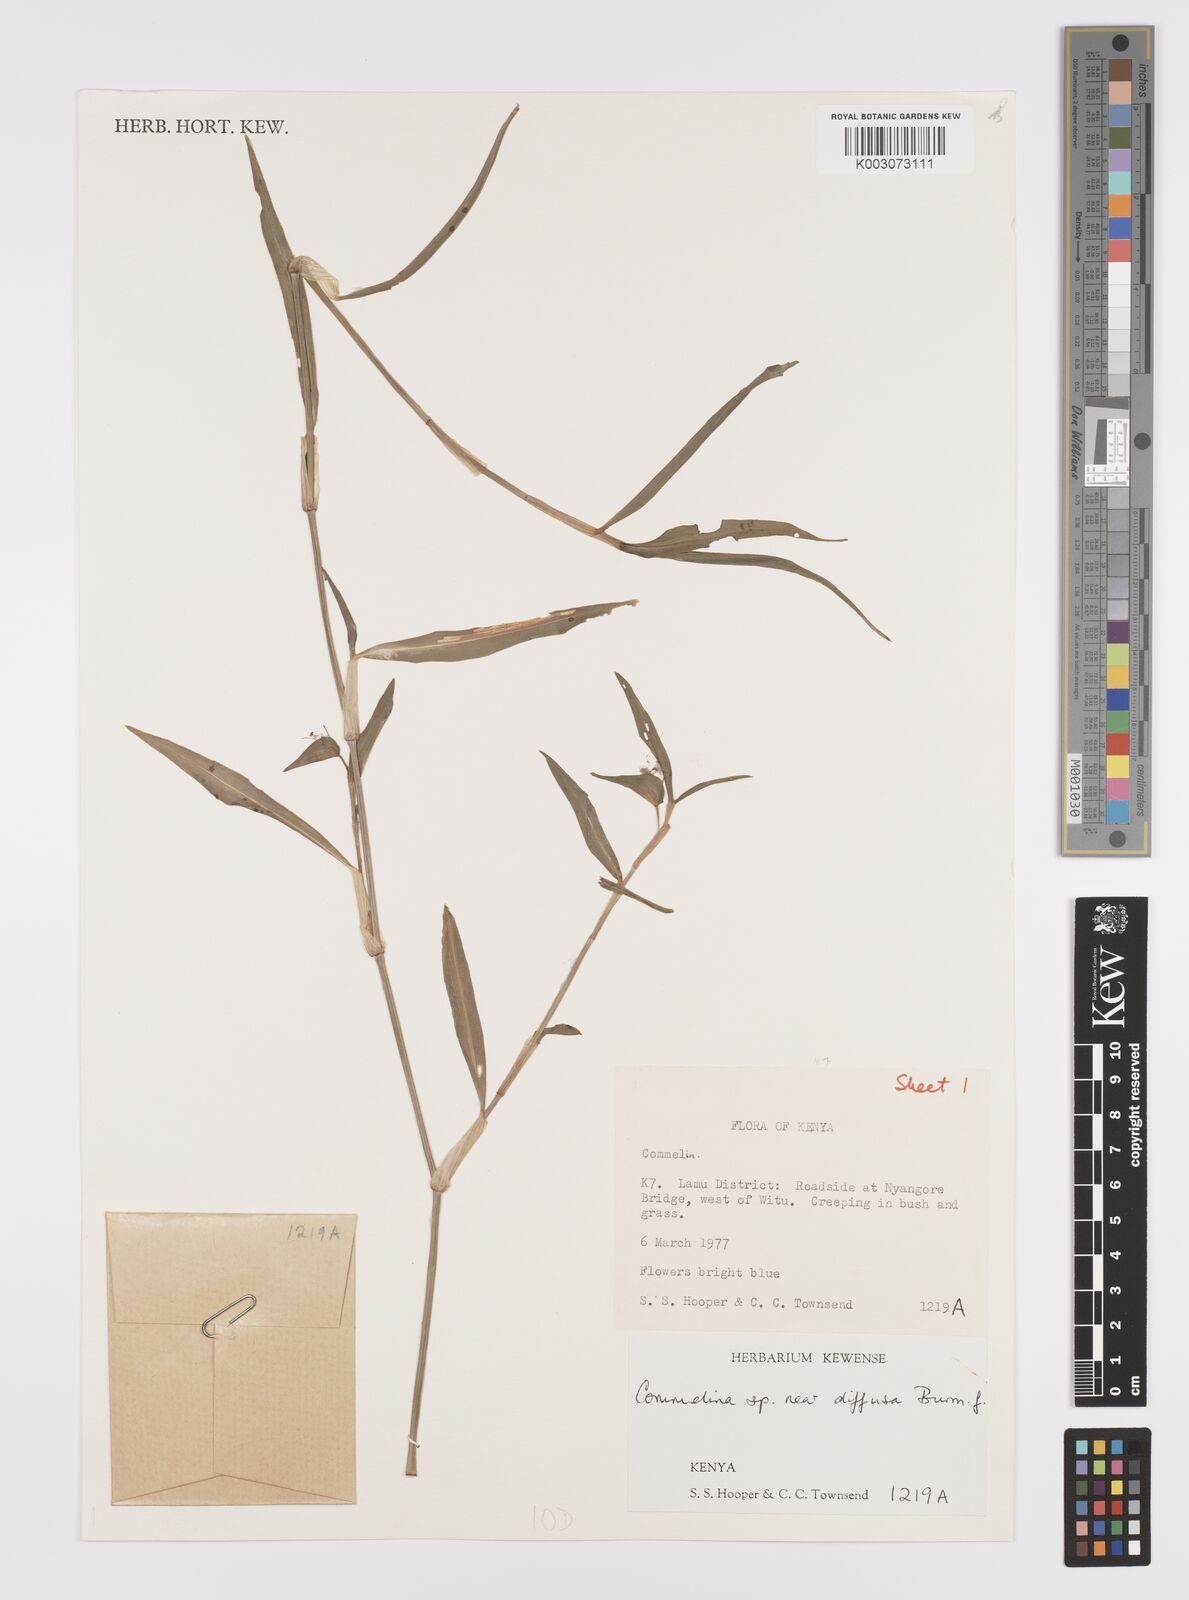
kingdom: Plantae
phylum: Tracheophyta
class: Liliopsida
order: Commelinales
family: Commelinaceae
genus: Commelina
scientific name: Commelina diffusa
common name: Climbing dayflower
